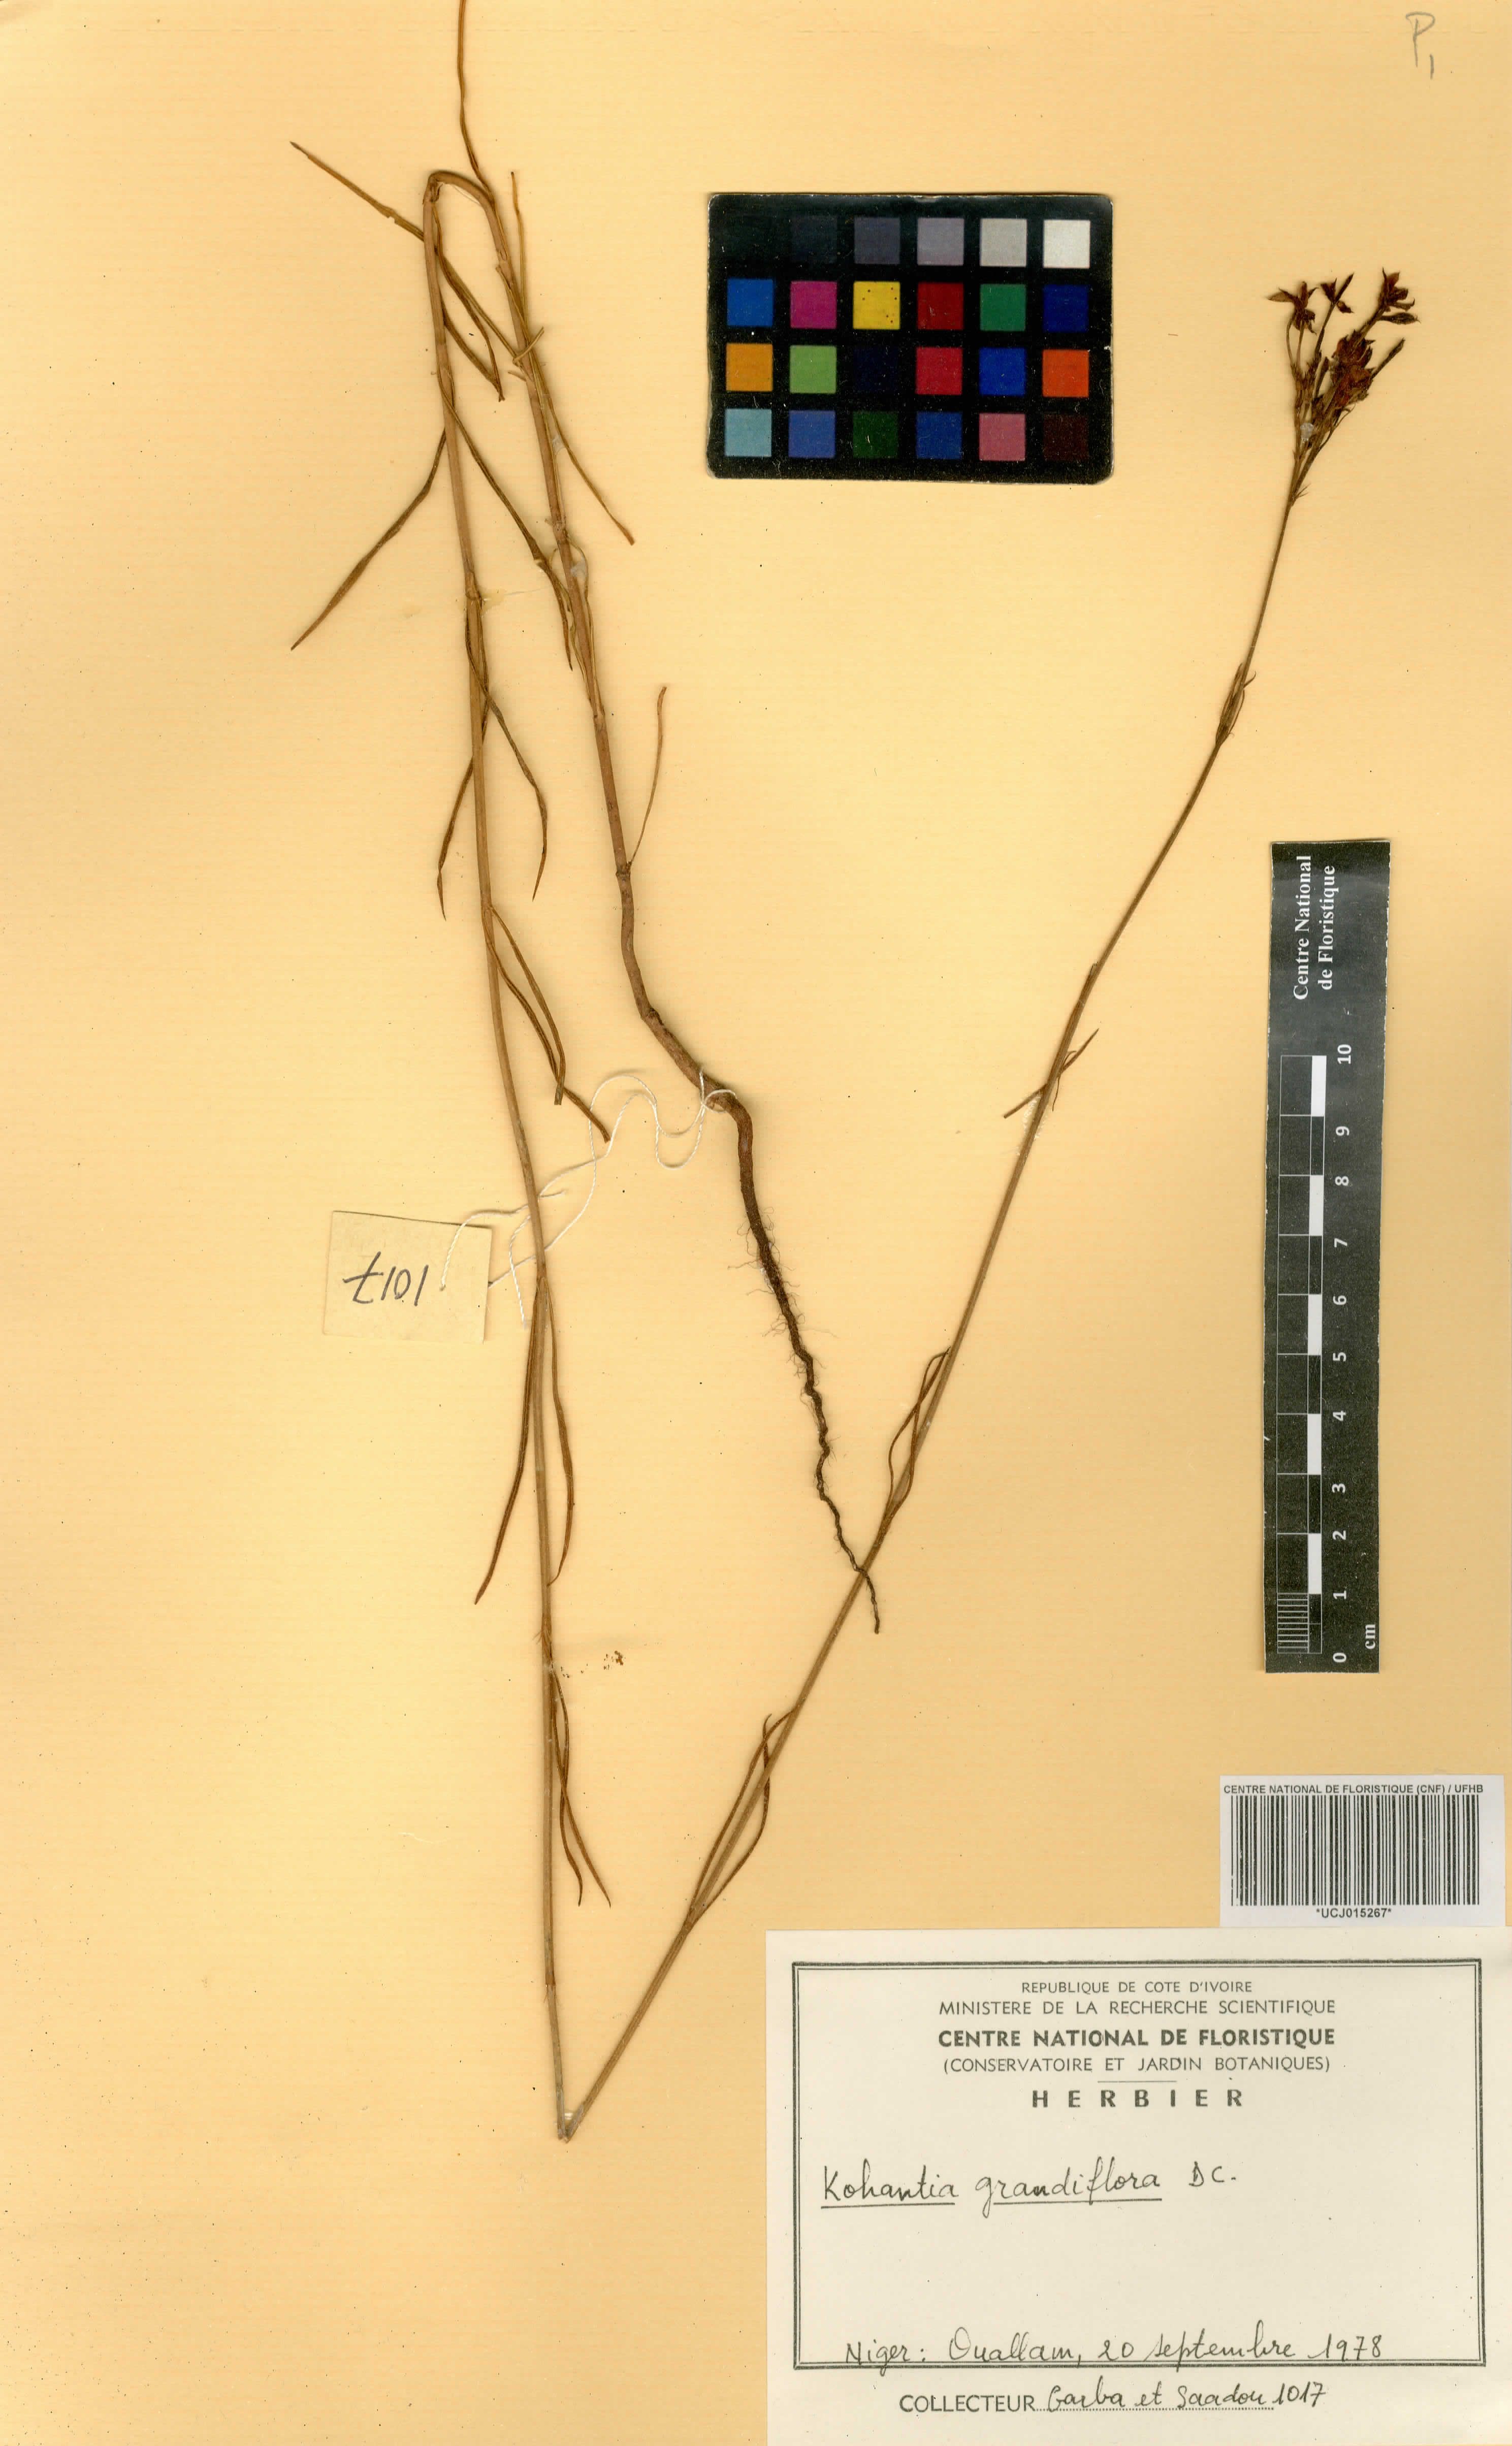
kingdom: Plantae
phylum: Tracheophyta
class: Magnoliopsida
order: Gentianales
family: Rubiaceae
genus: Kohautia
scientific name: Kohautia grandiflora
